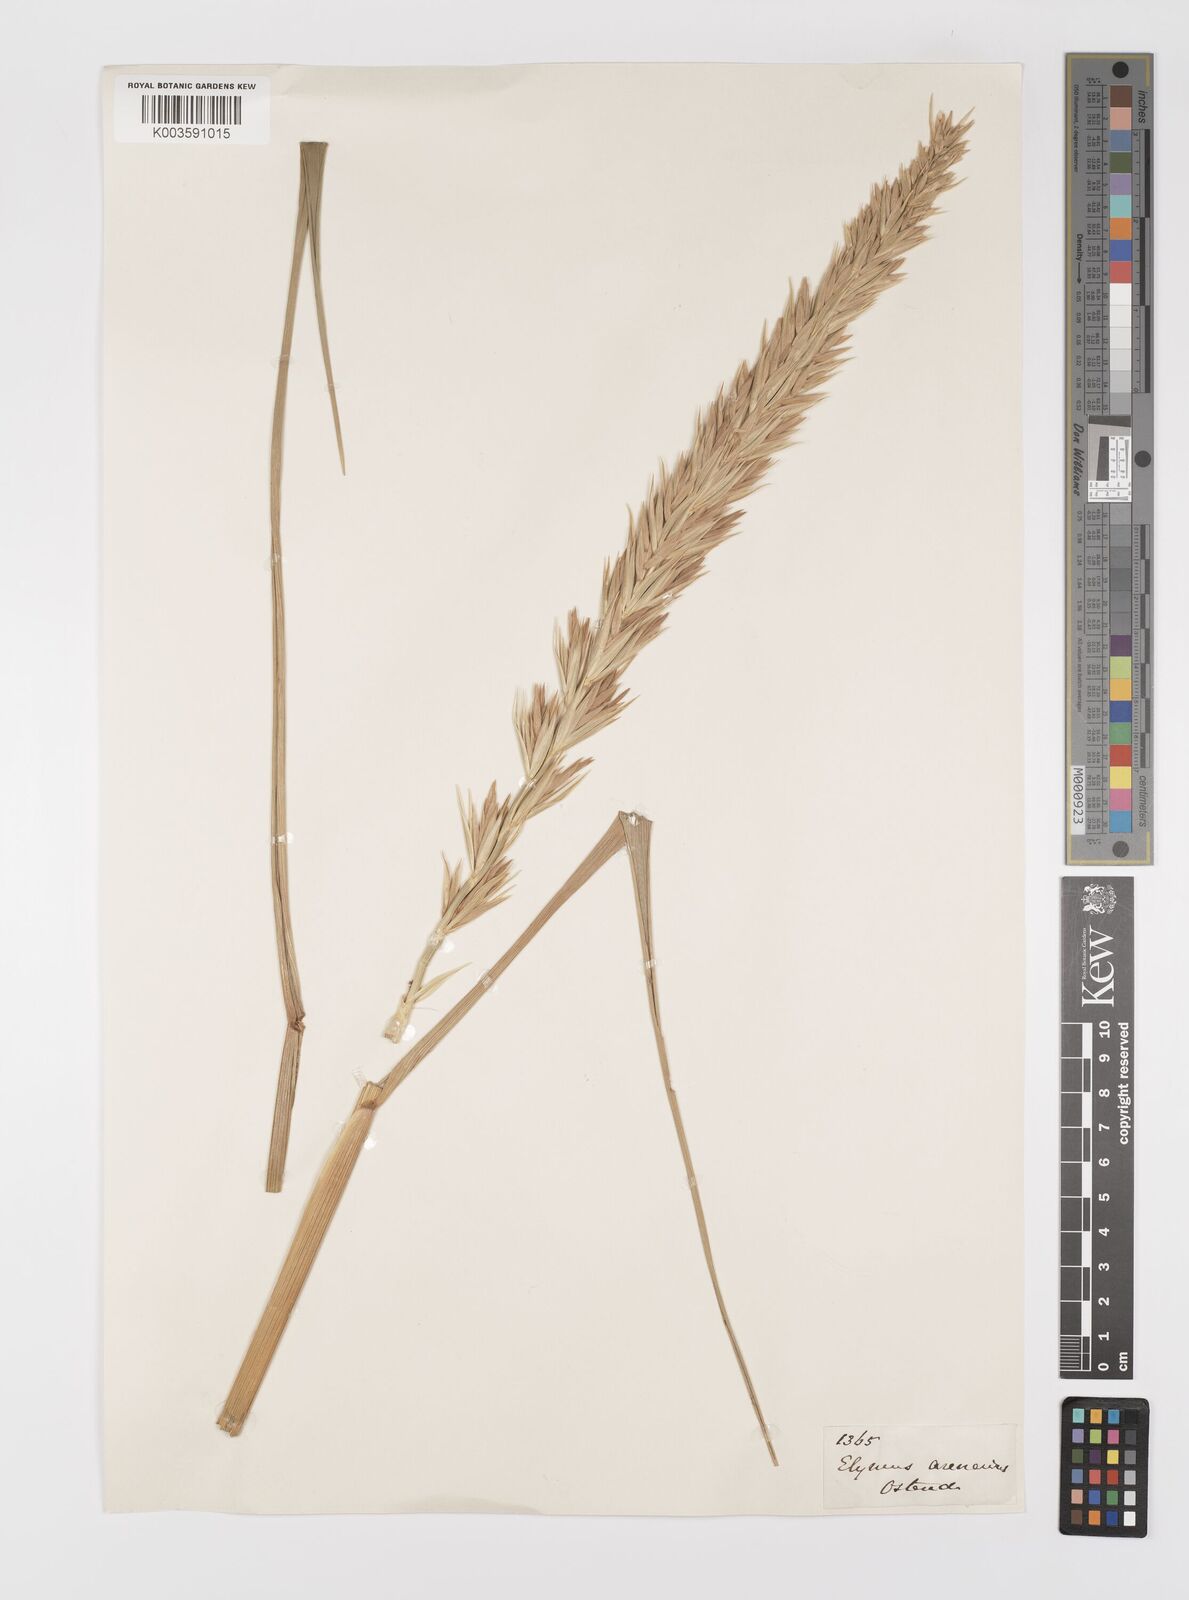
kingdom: Plantae
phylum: Tracheophyta
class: Liliopsida
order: Poales
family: Poaceae
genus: Leymus
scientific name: Leymus arenarius
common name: Lyme-grass
